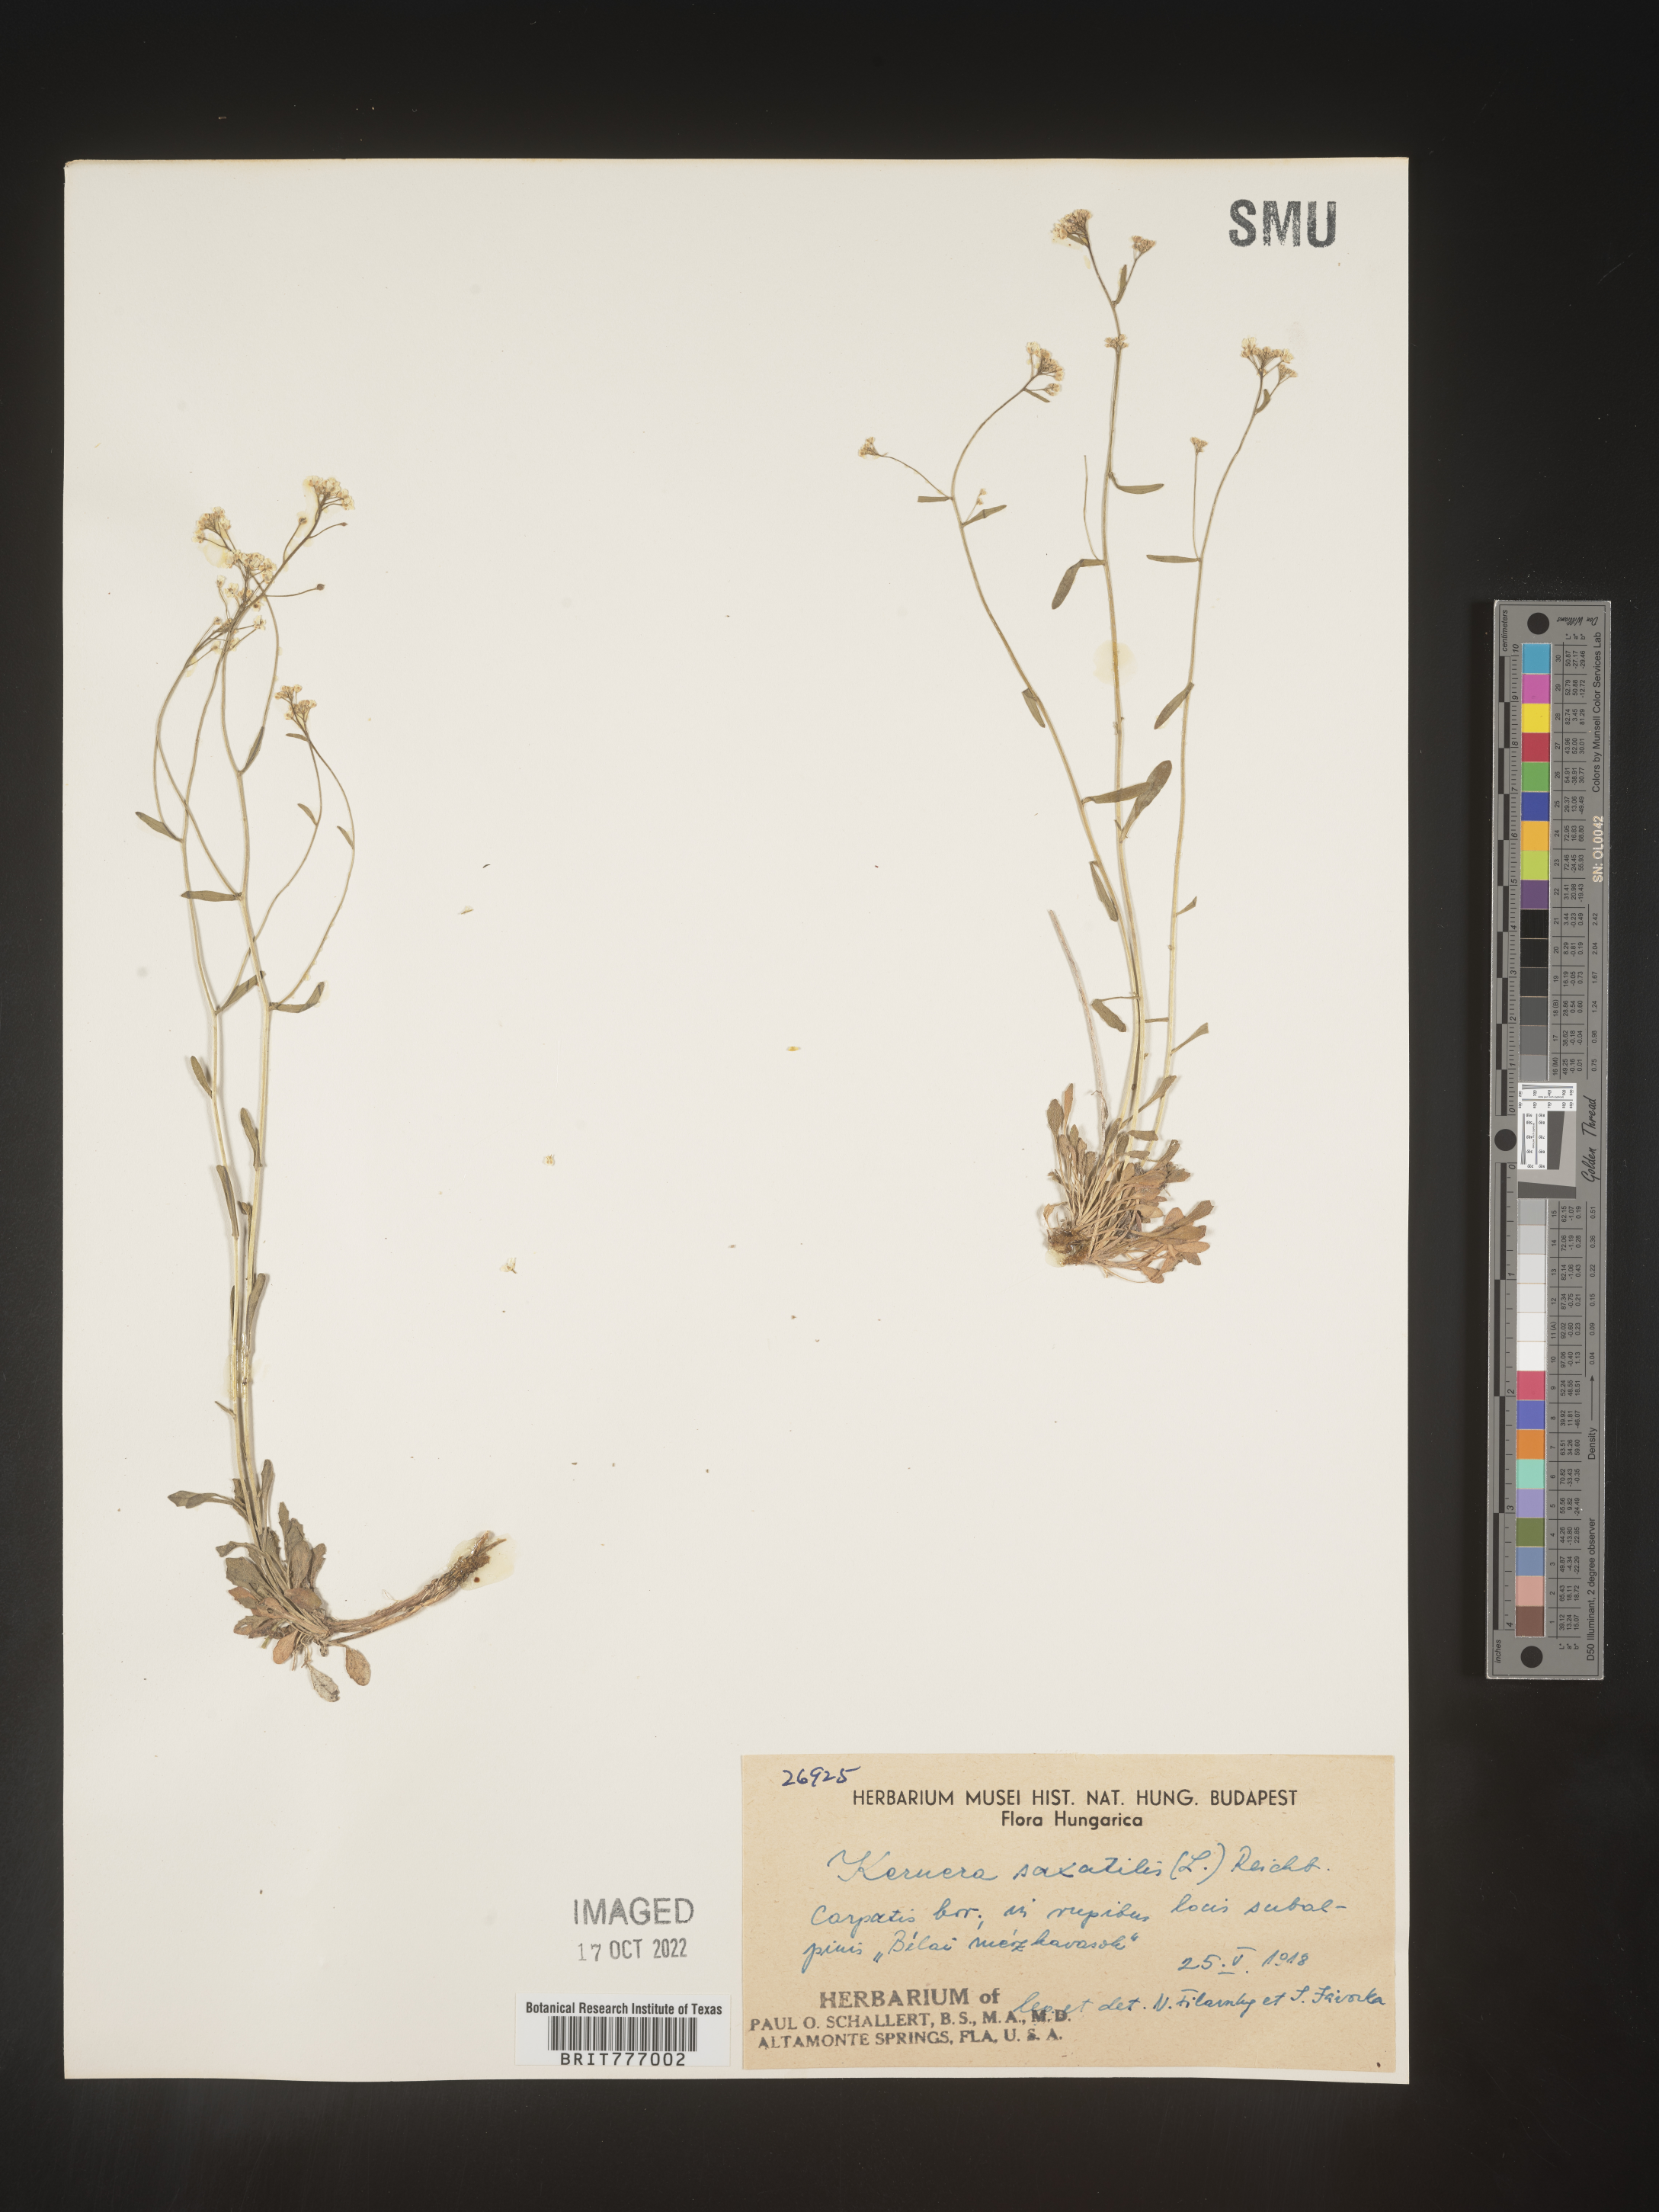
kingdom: Plantae
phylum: Tracheophyta
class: Magnoliopsida
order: Brassicales
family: Brassicaceae
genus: Kernera
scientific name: Kernera
